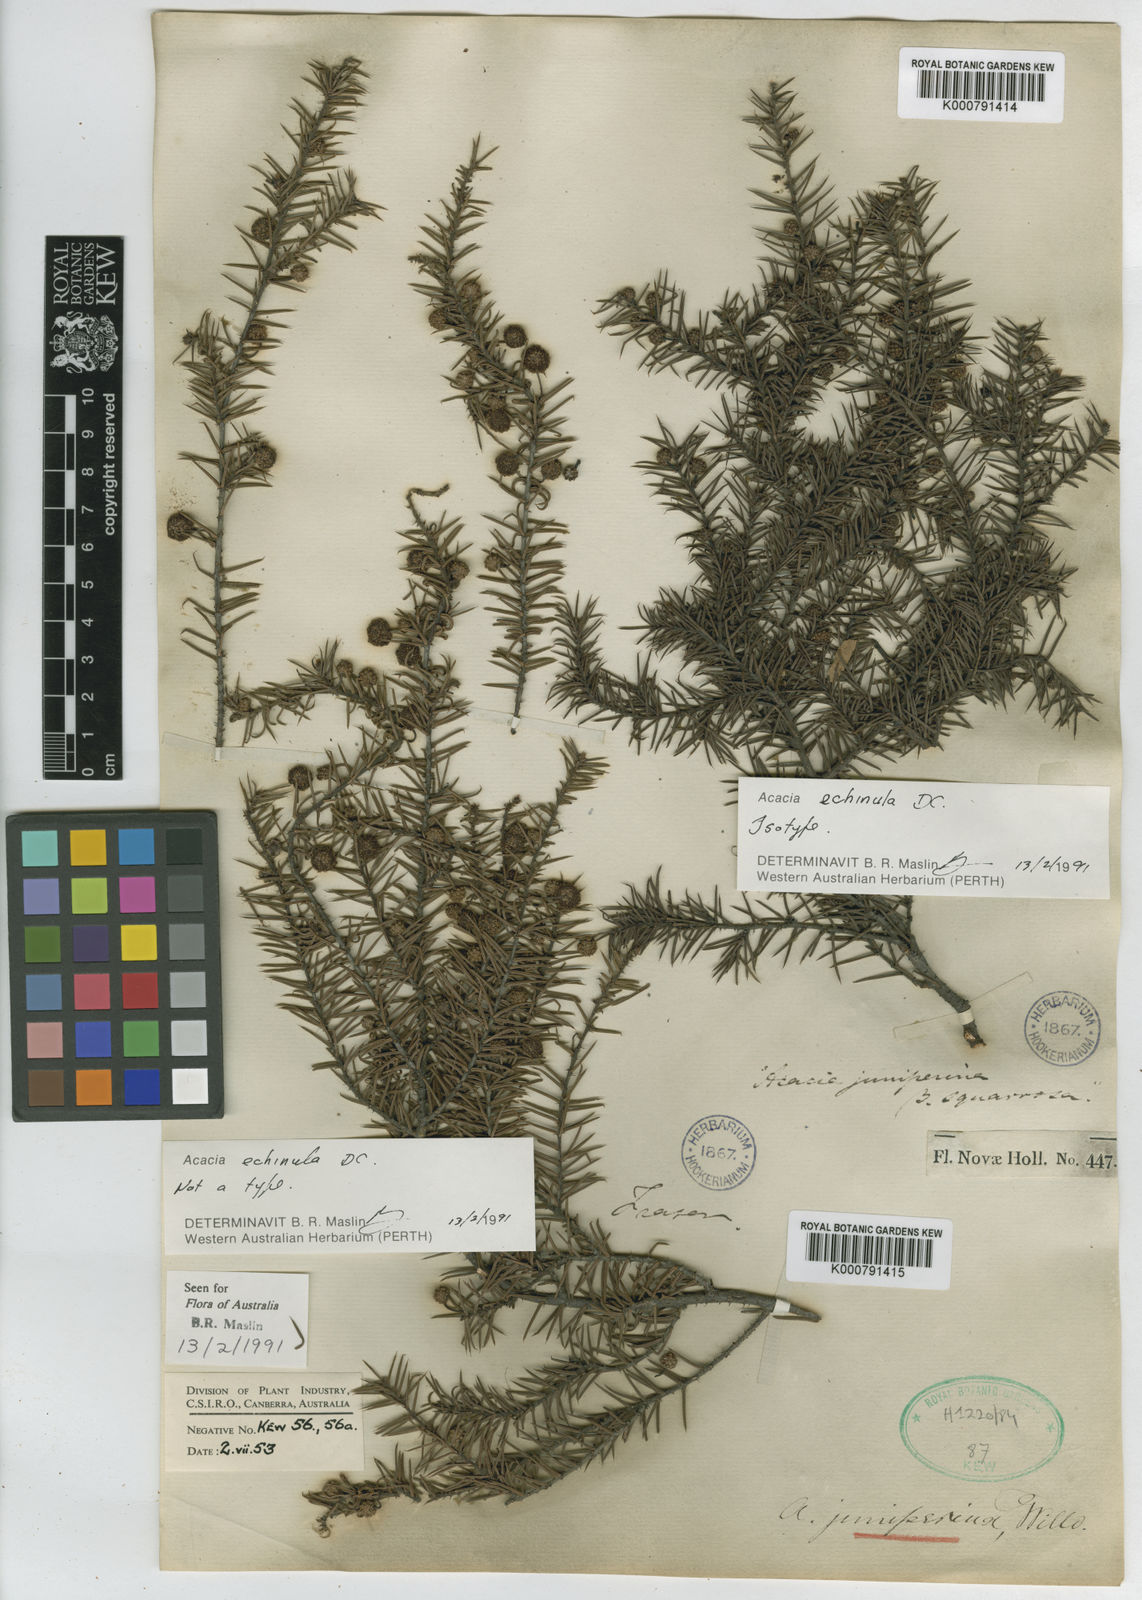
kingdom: Plantae
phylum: Tracheophyta
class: Magnoliopsida
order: Fabales
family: Fabaceae
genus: Acacia
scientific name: Acacia echinula
